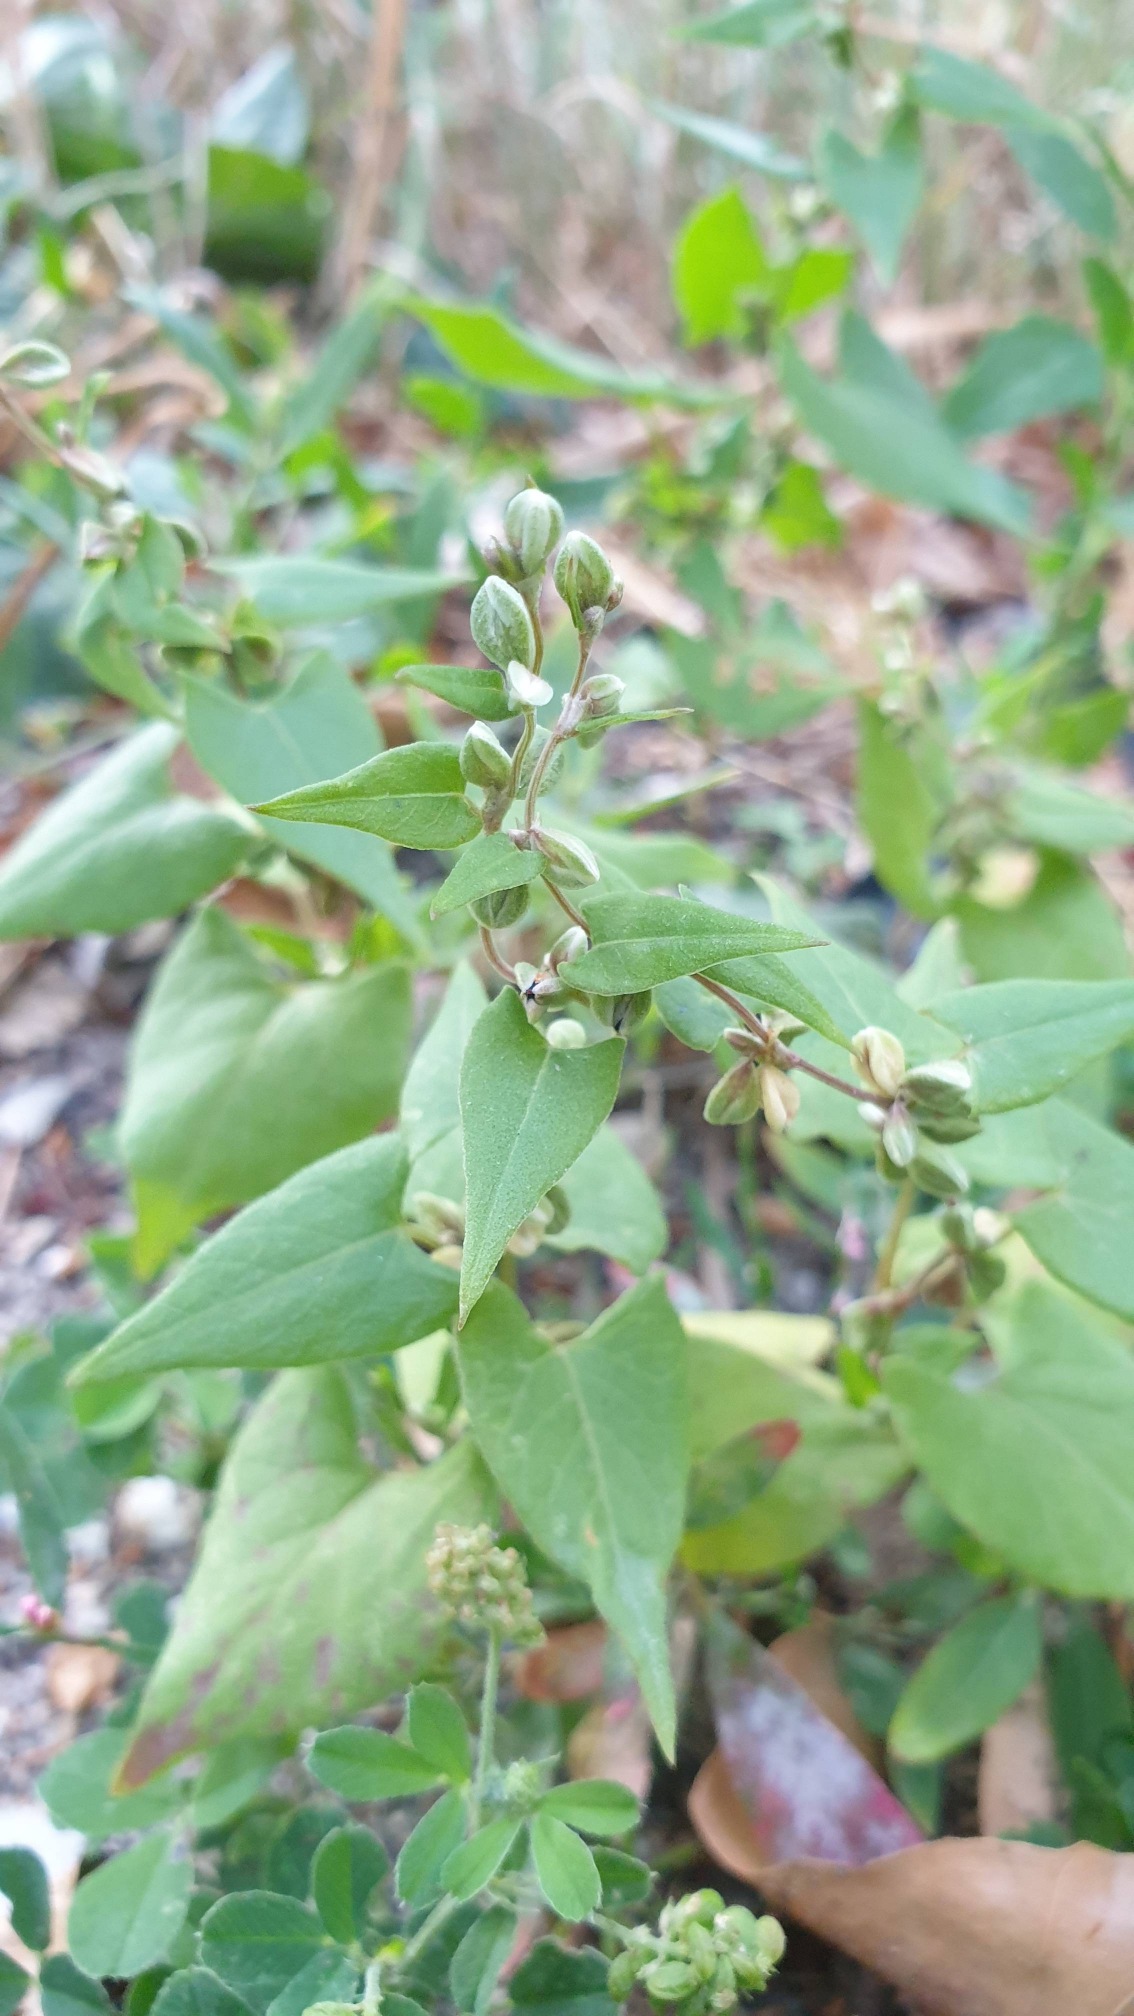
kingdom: Plantae
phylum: Tracheophyta
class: Magnoliopsida
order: Caryophyllales
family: Polygonaceae
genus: Fallopia
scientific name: Fallopia convolvulus
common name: Snerle-pileurt
